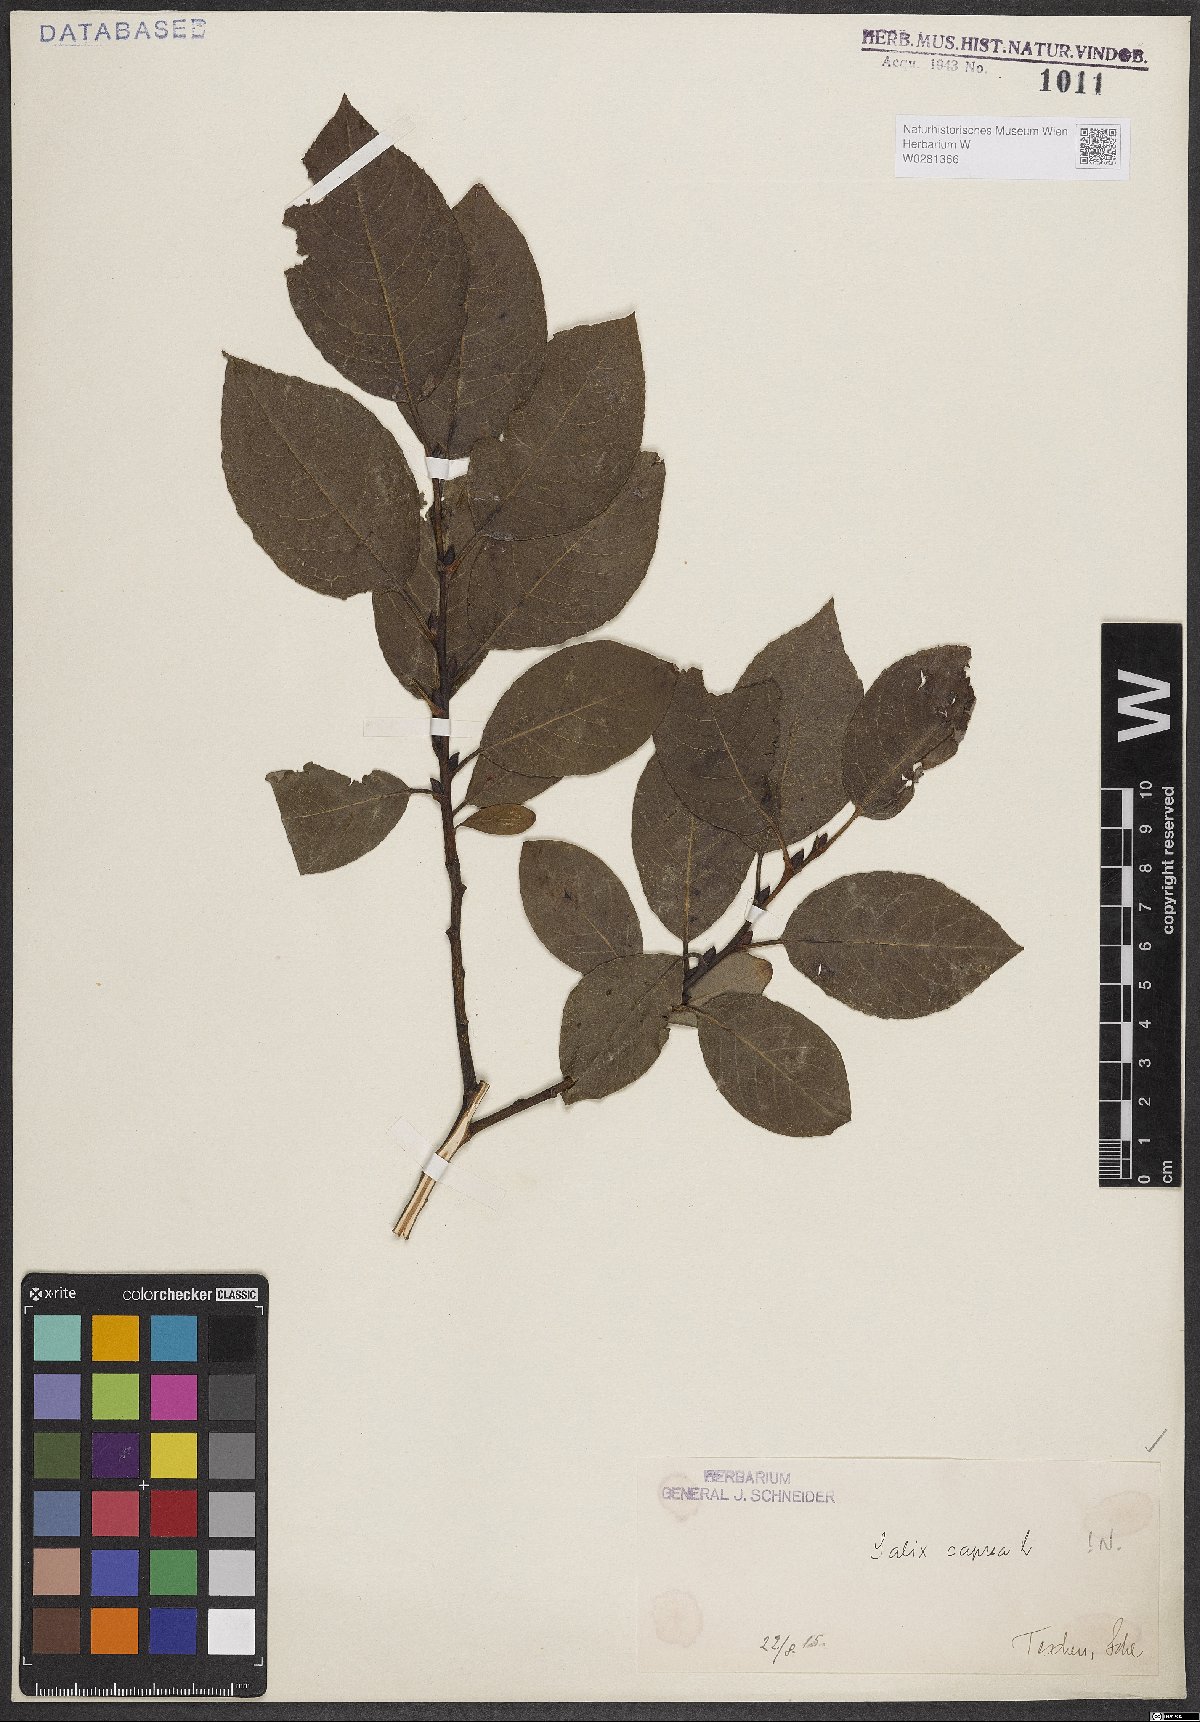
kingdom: Plantae
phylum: Tracheophyta
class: Magnoliopsida
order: Malpighiales
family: Salicaceae
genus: Salix
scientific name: Salix caprea
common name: Goat willow
